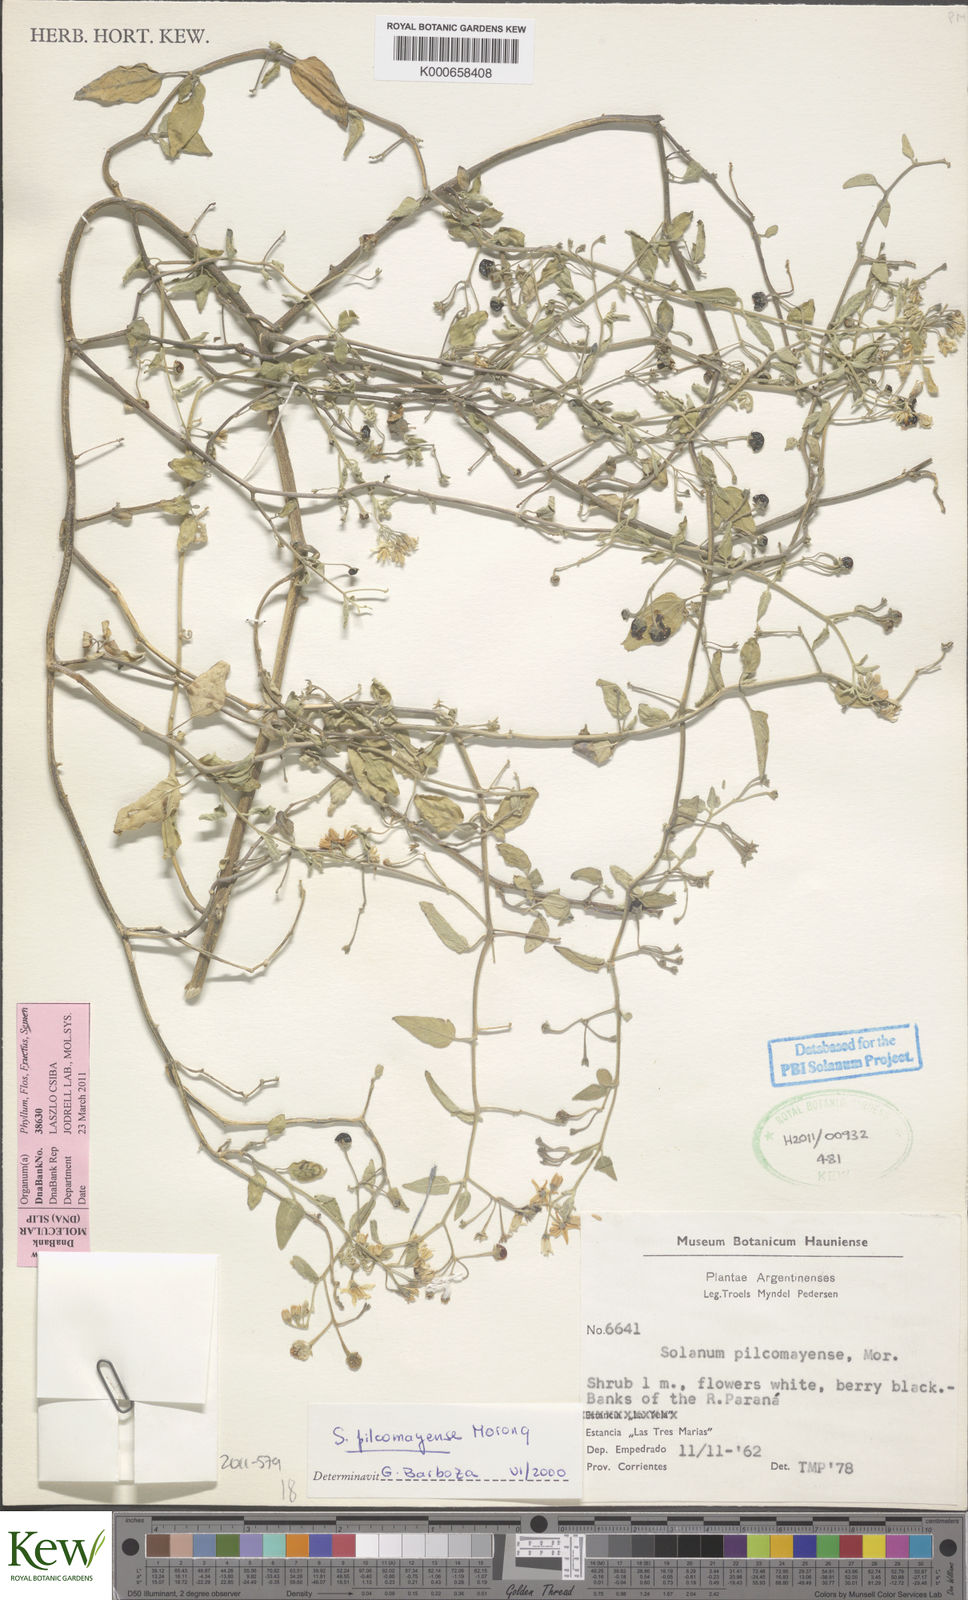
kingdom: Plantae
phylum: Tracheophyta
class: Magnoliopsida
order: Solanales
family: Solanaceae
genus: Solanum
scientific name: Solanum pilcomayense
